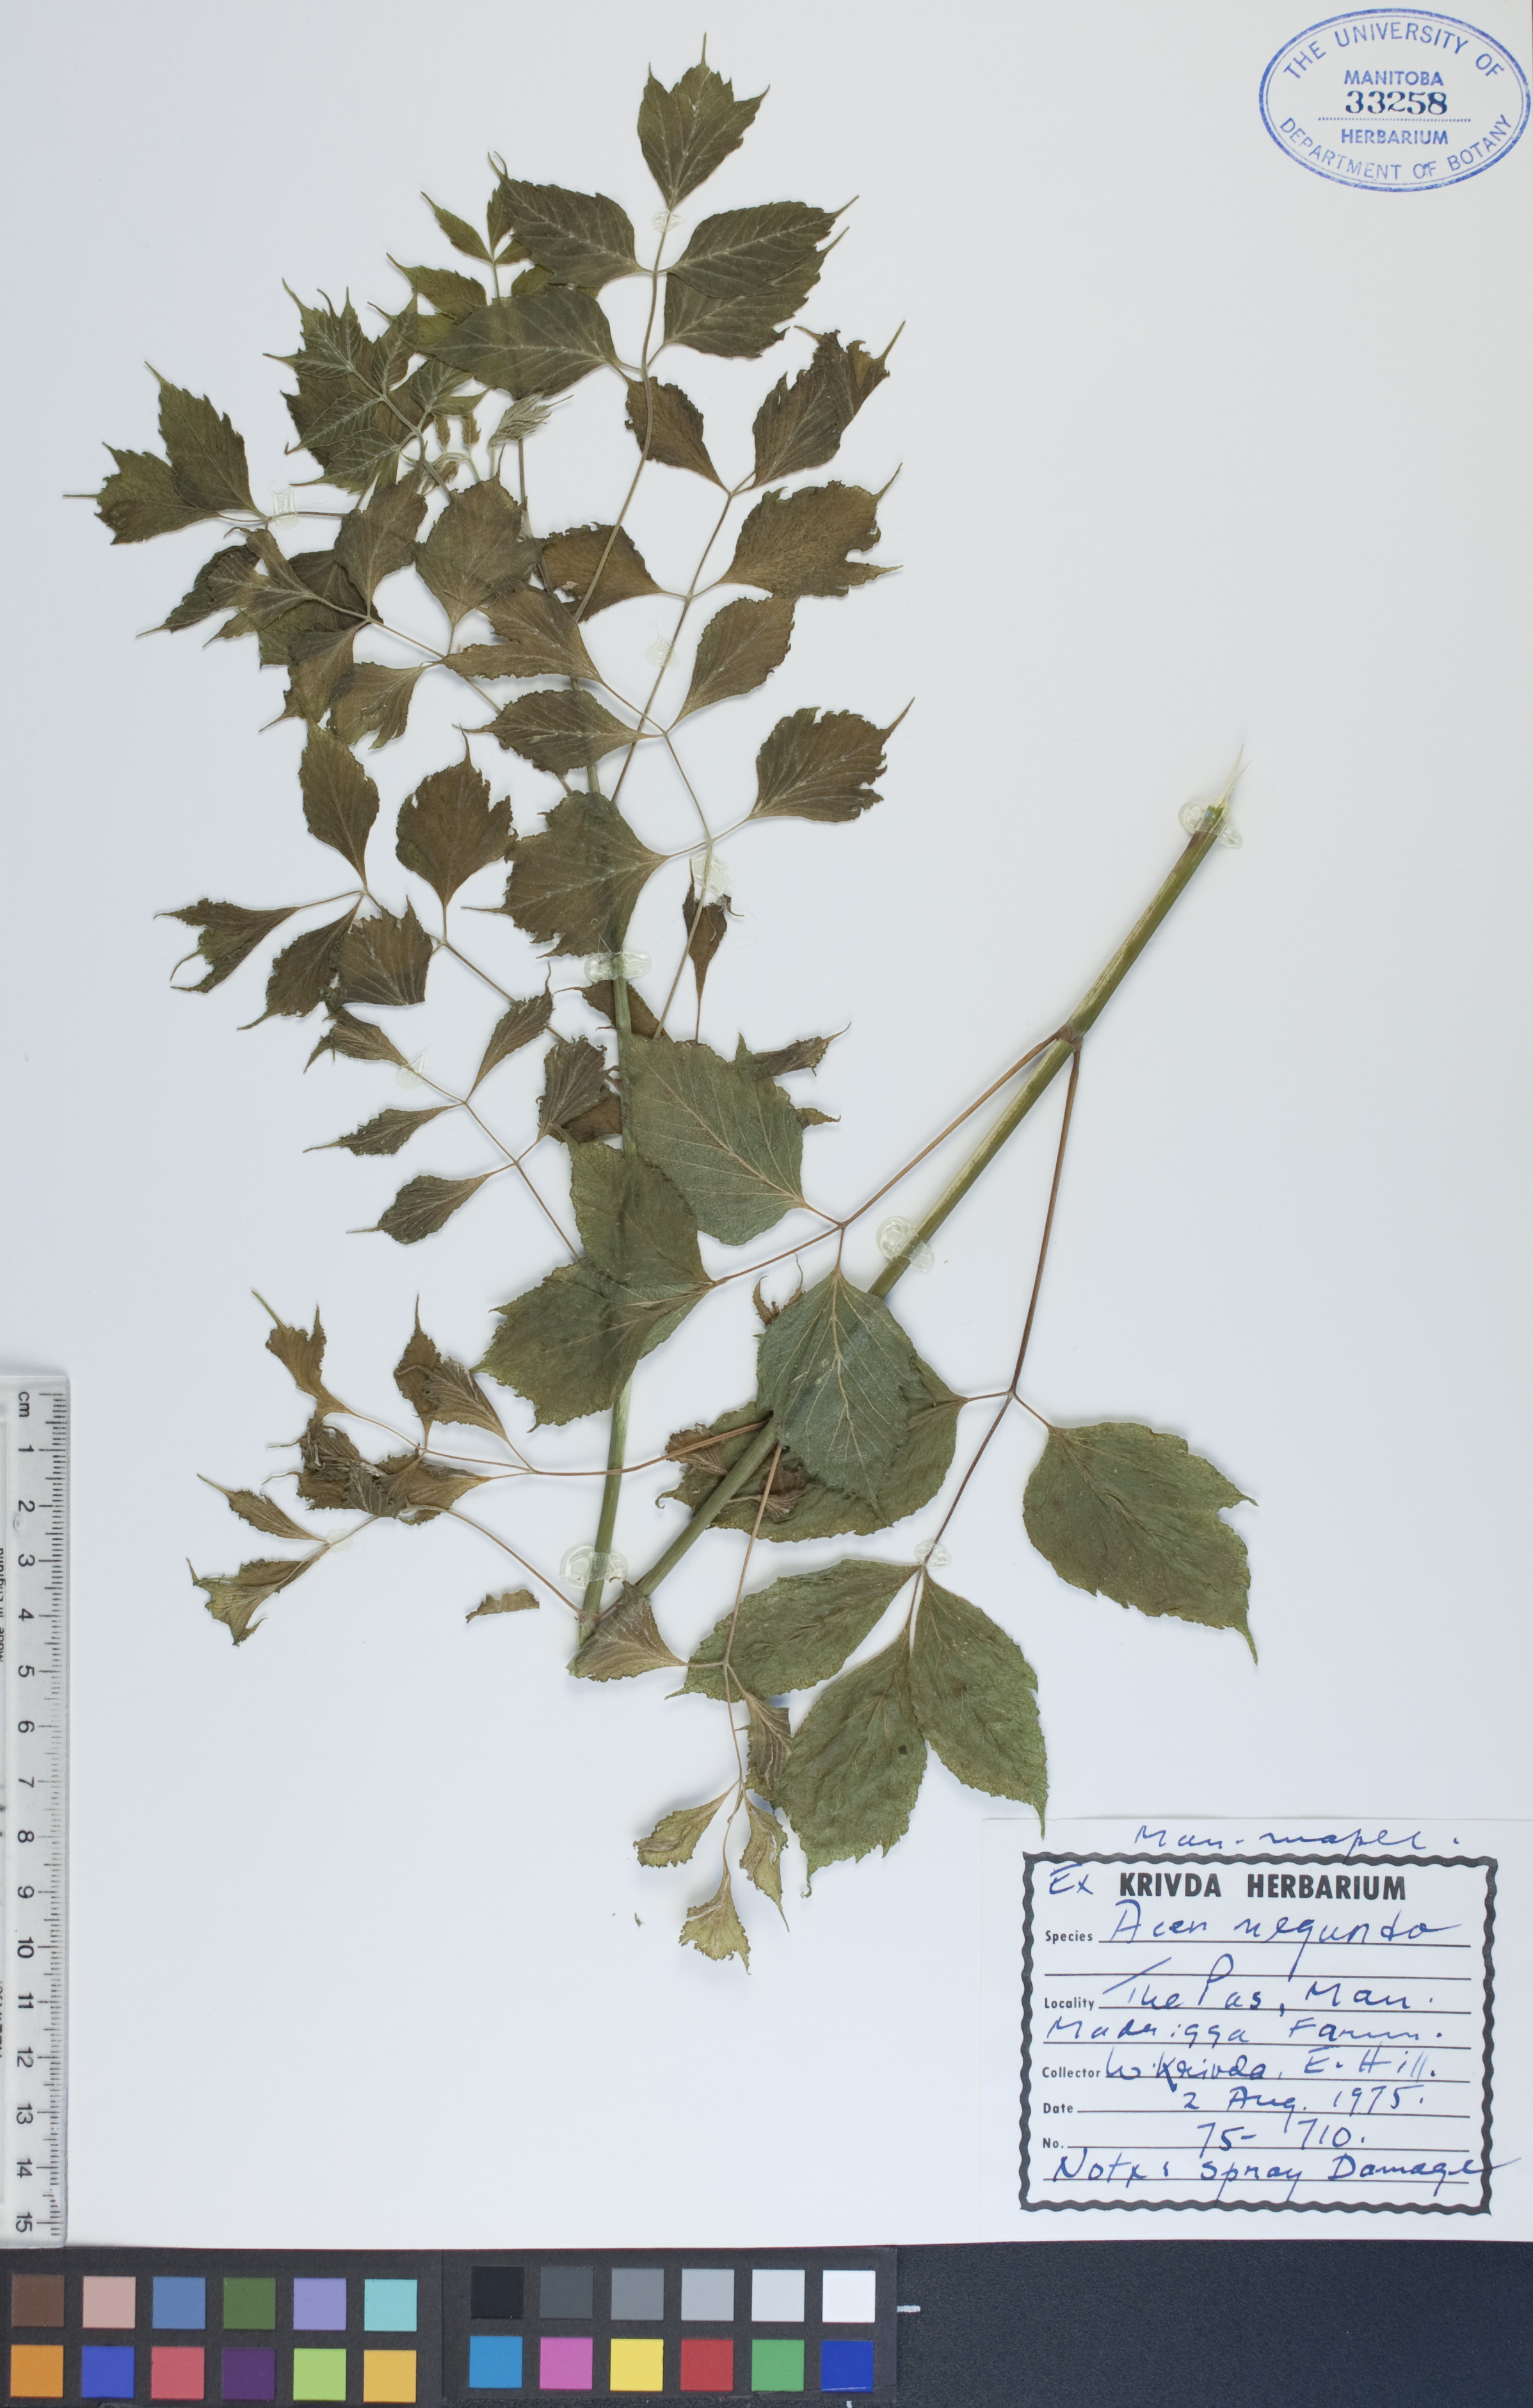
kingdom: Plantae
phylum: Tracheophyta
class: Magnoliopsida
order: Sapindales
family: Sapindaceae
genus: Acer
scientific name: Acer negundo
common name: Ashleaf maple
